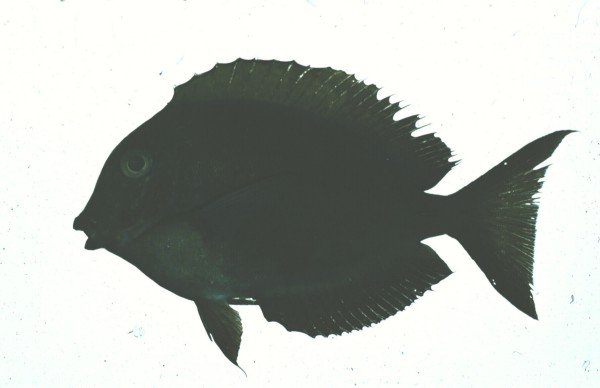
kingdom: Animalia
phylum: Chordata
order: Perciformes
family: Acanthuridae
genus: Acanthurus
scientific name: Acanthurus nigrofuscus
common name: Blackspot surgeonfish
